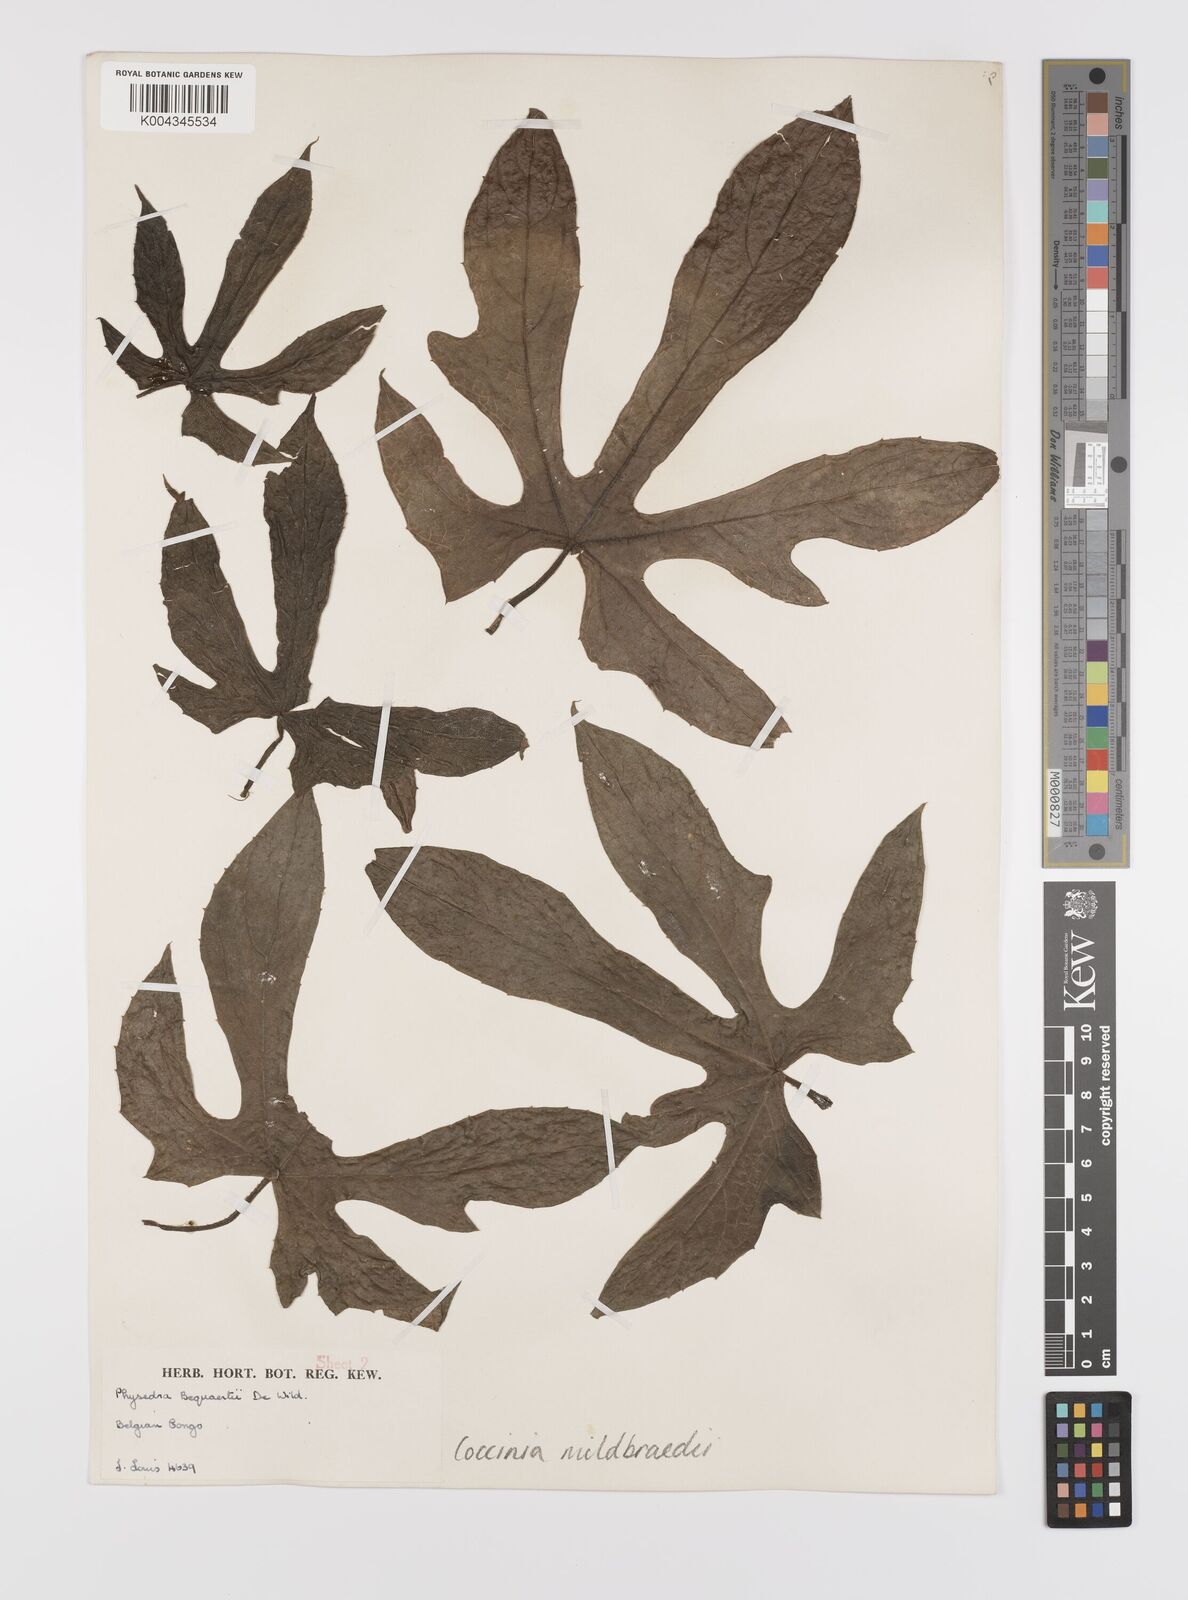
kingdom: Plantae
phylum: Tracheophyta
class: Magnoliopsida
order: Cucurbitales
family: Cucurbitaceae
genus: Coccinia
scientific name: Coccinia mildbraedii
